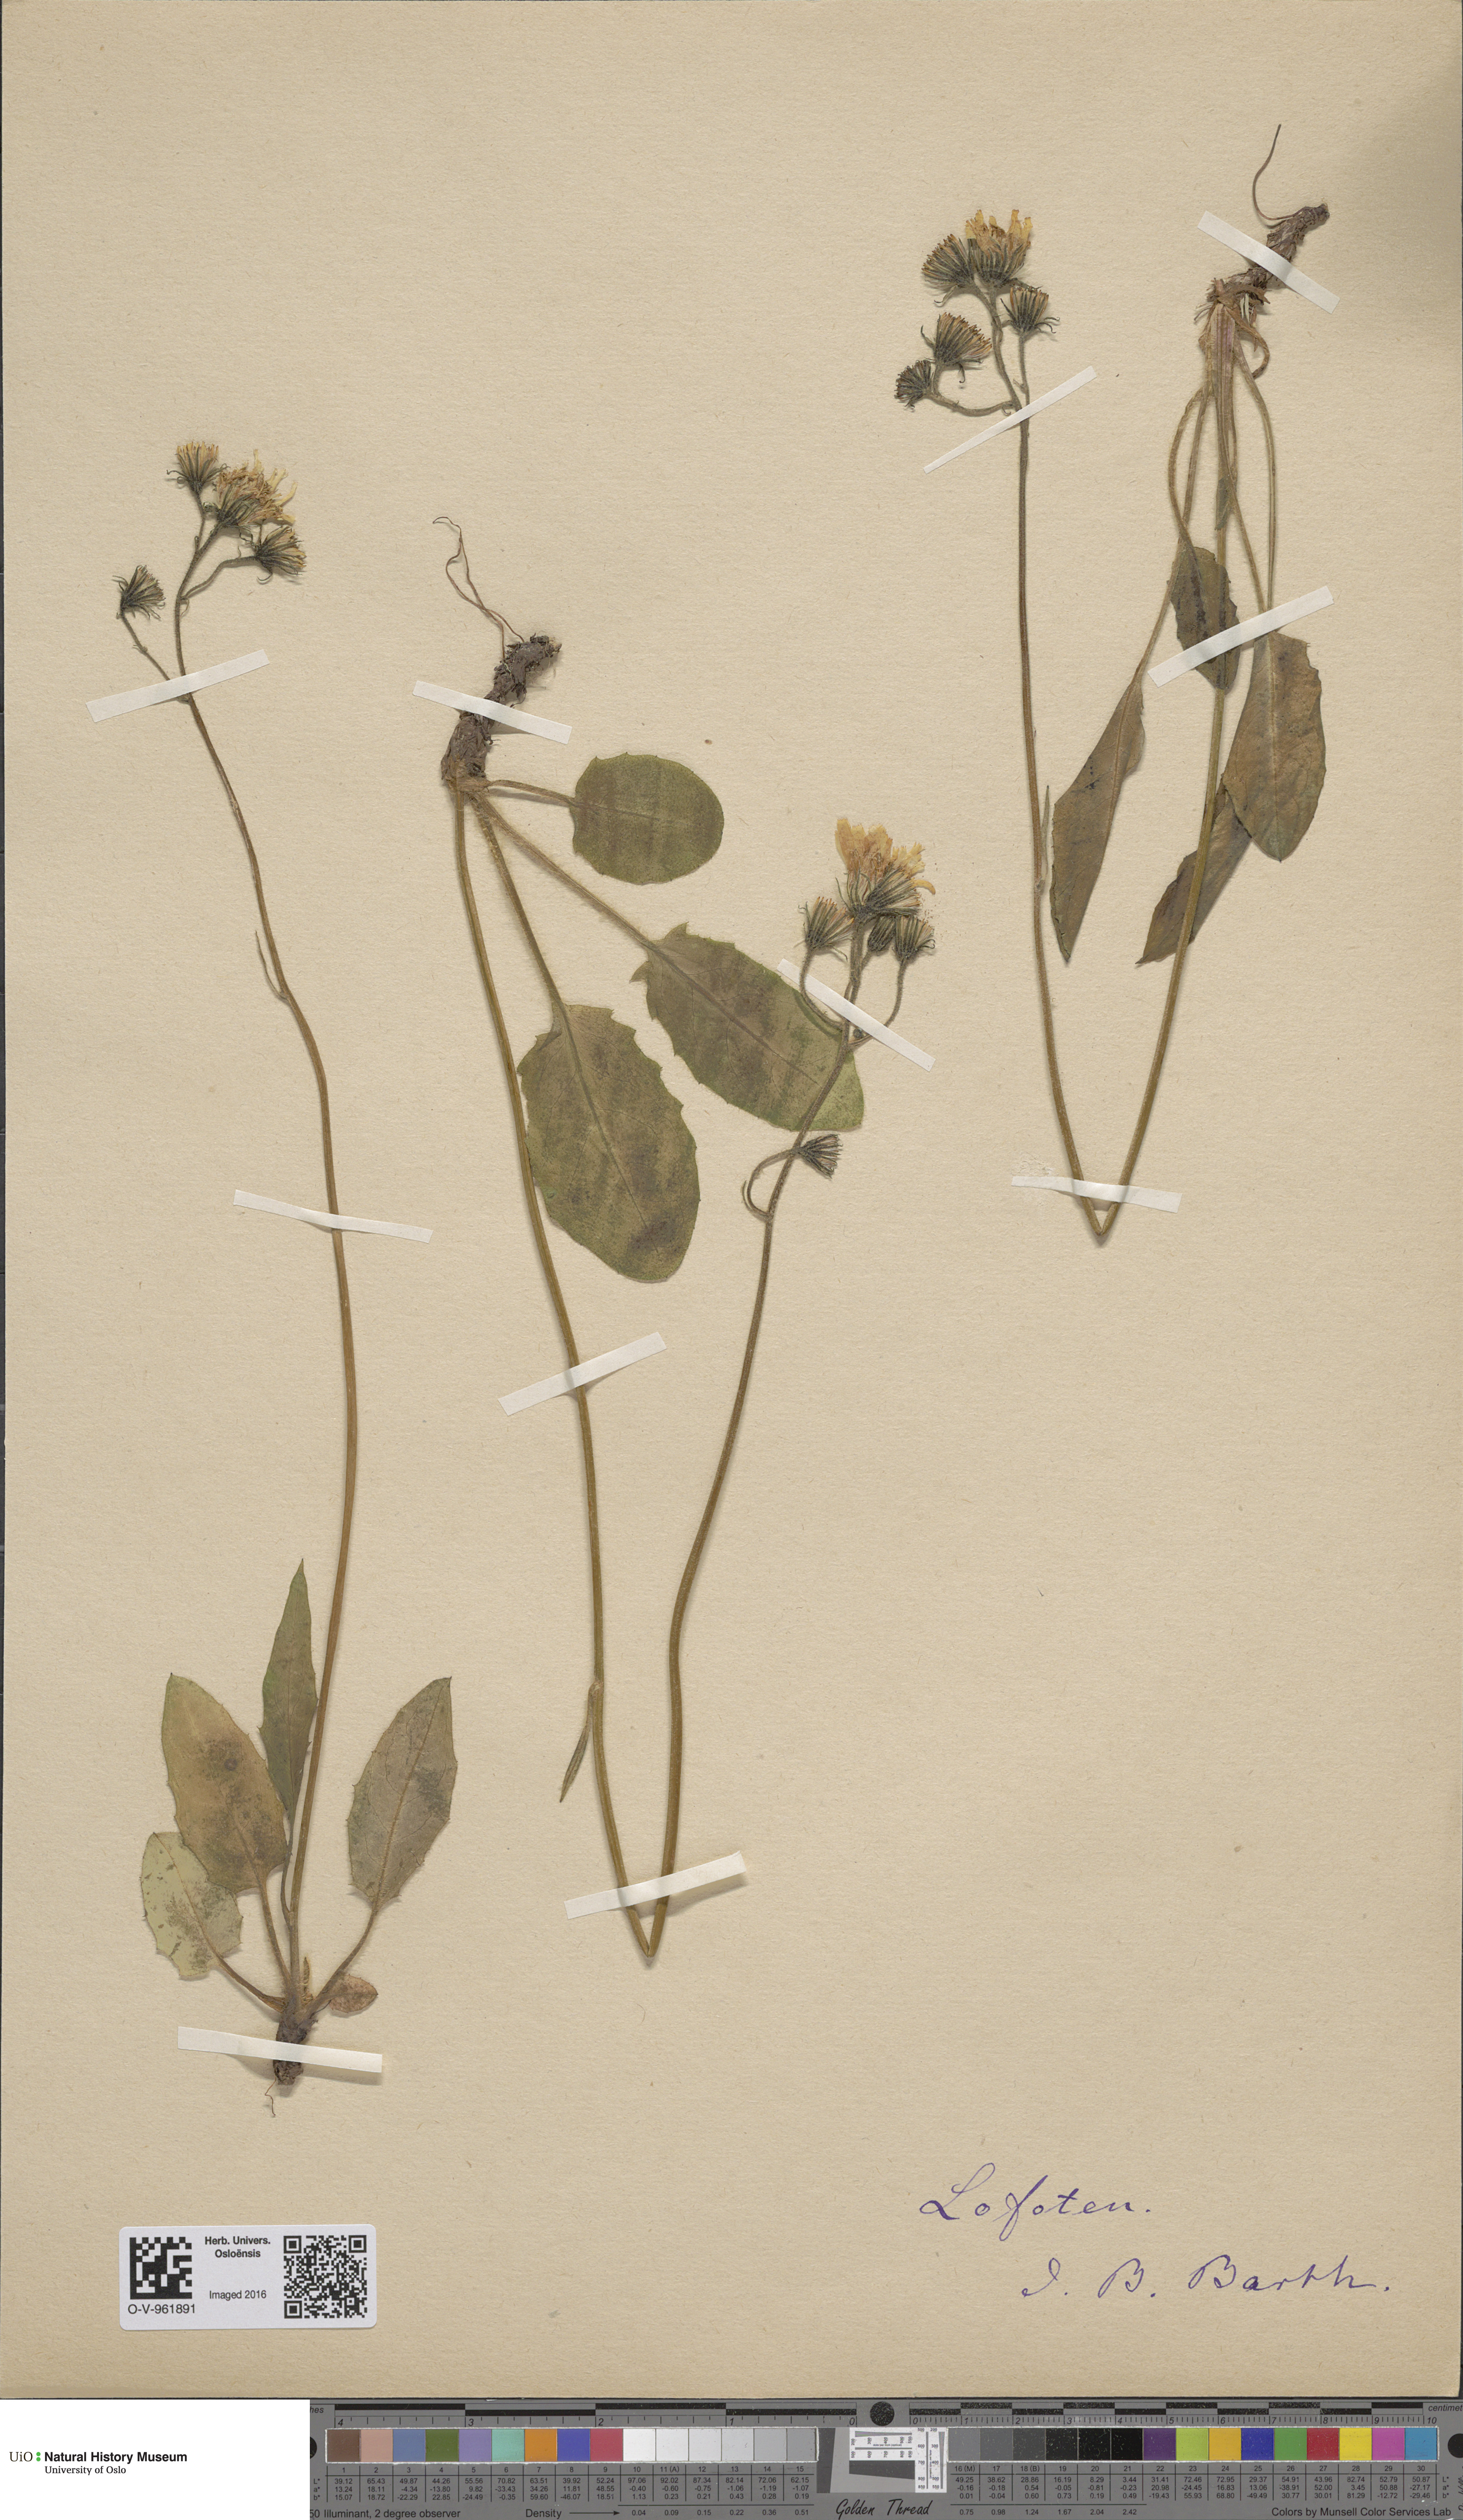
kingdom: Plantae
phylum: Tracheophyta
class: Magnoliopsida
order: Asterales
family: Asteraceae
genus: Hieracium
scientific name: Hieracium
